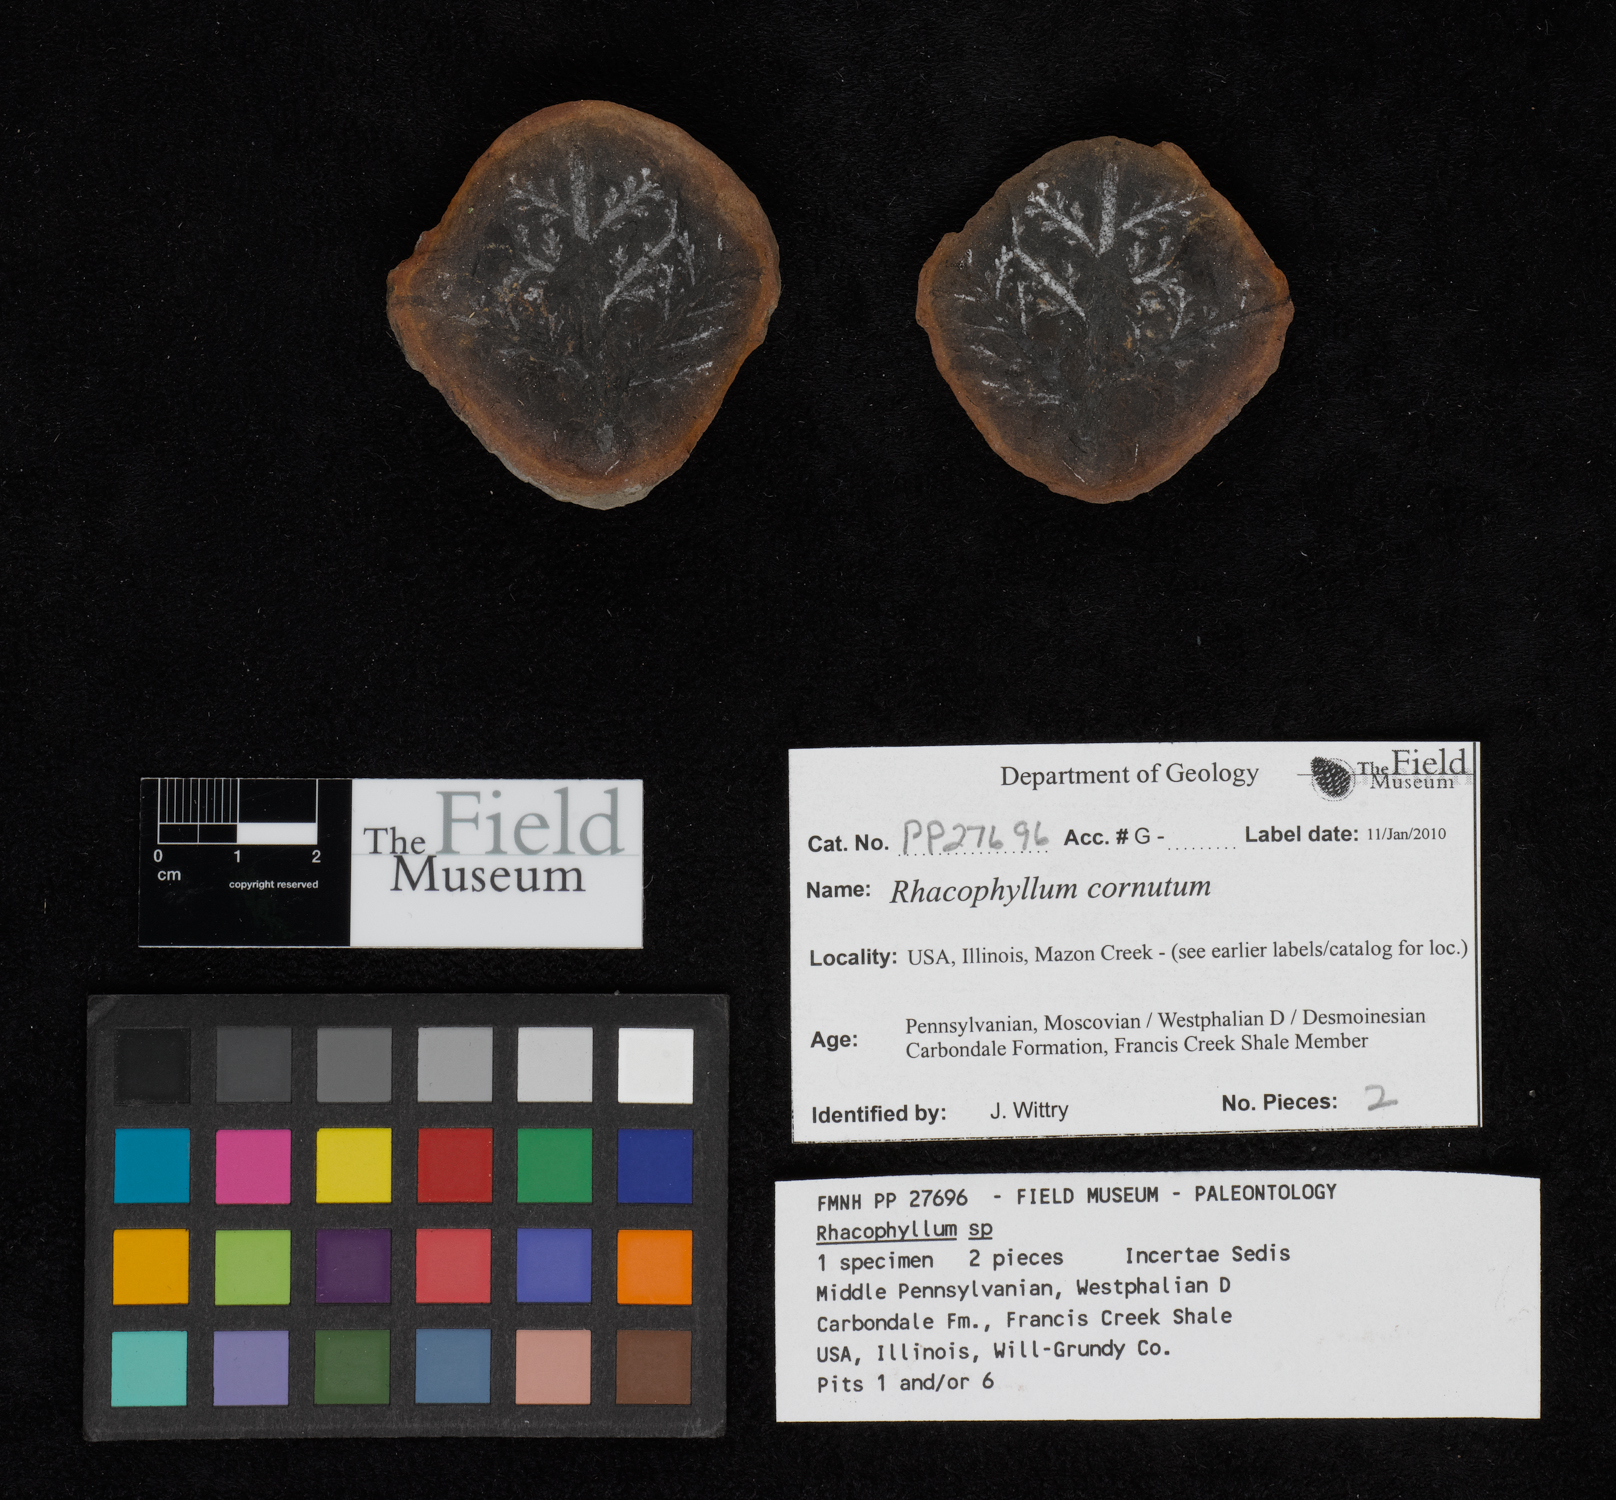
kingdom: Plantae
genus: Rhacophyllum
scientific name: Rhacophyllum
